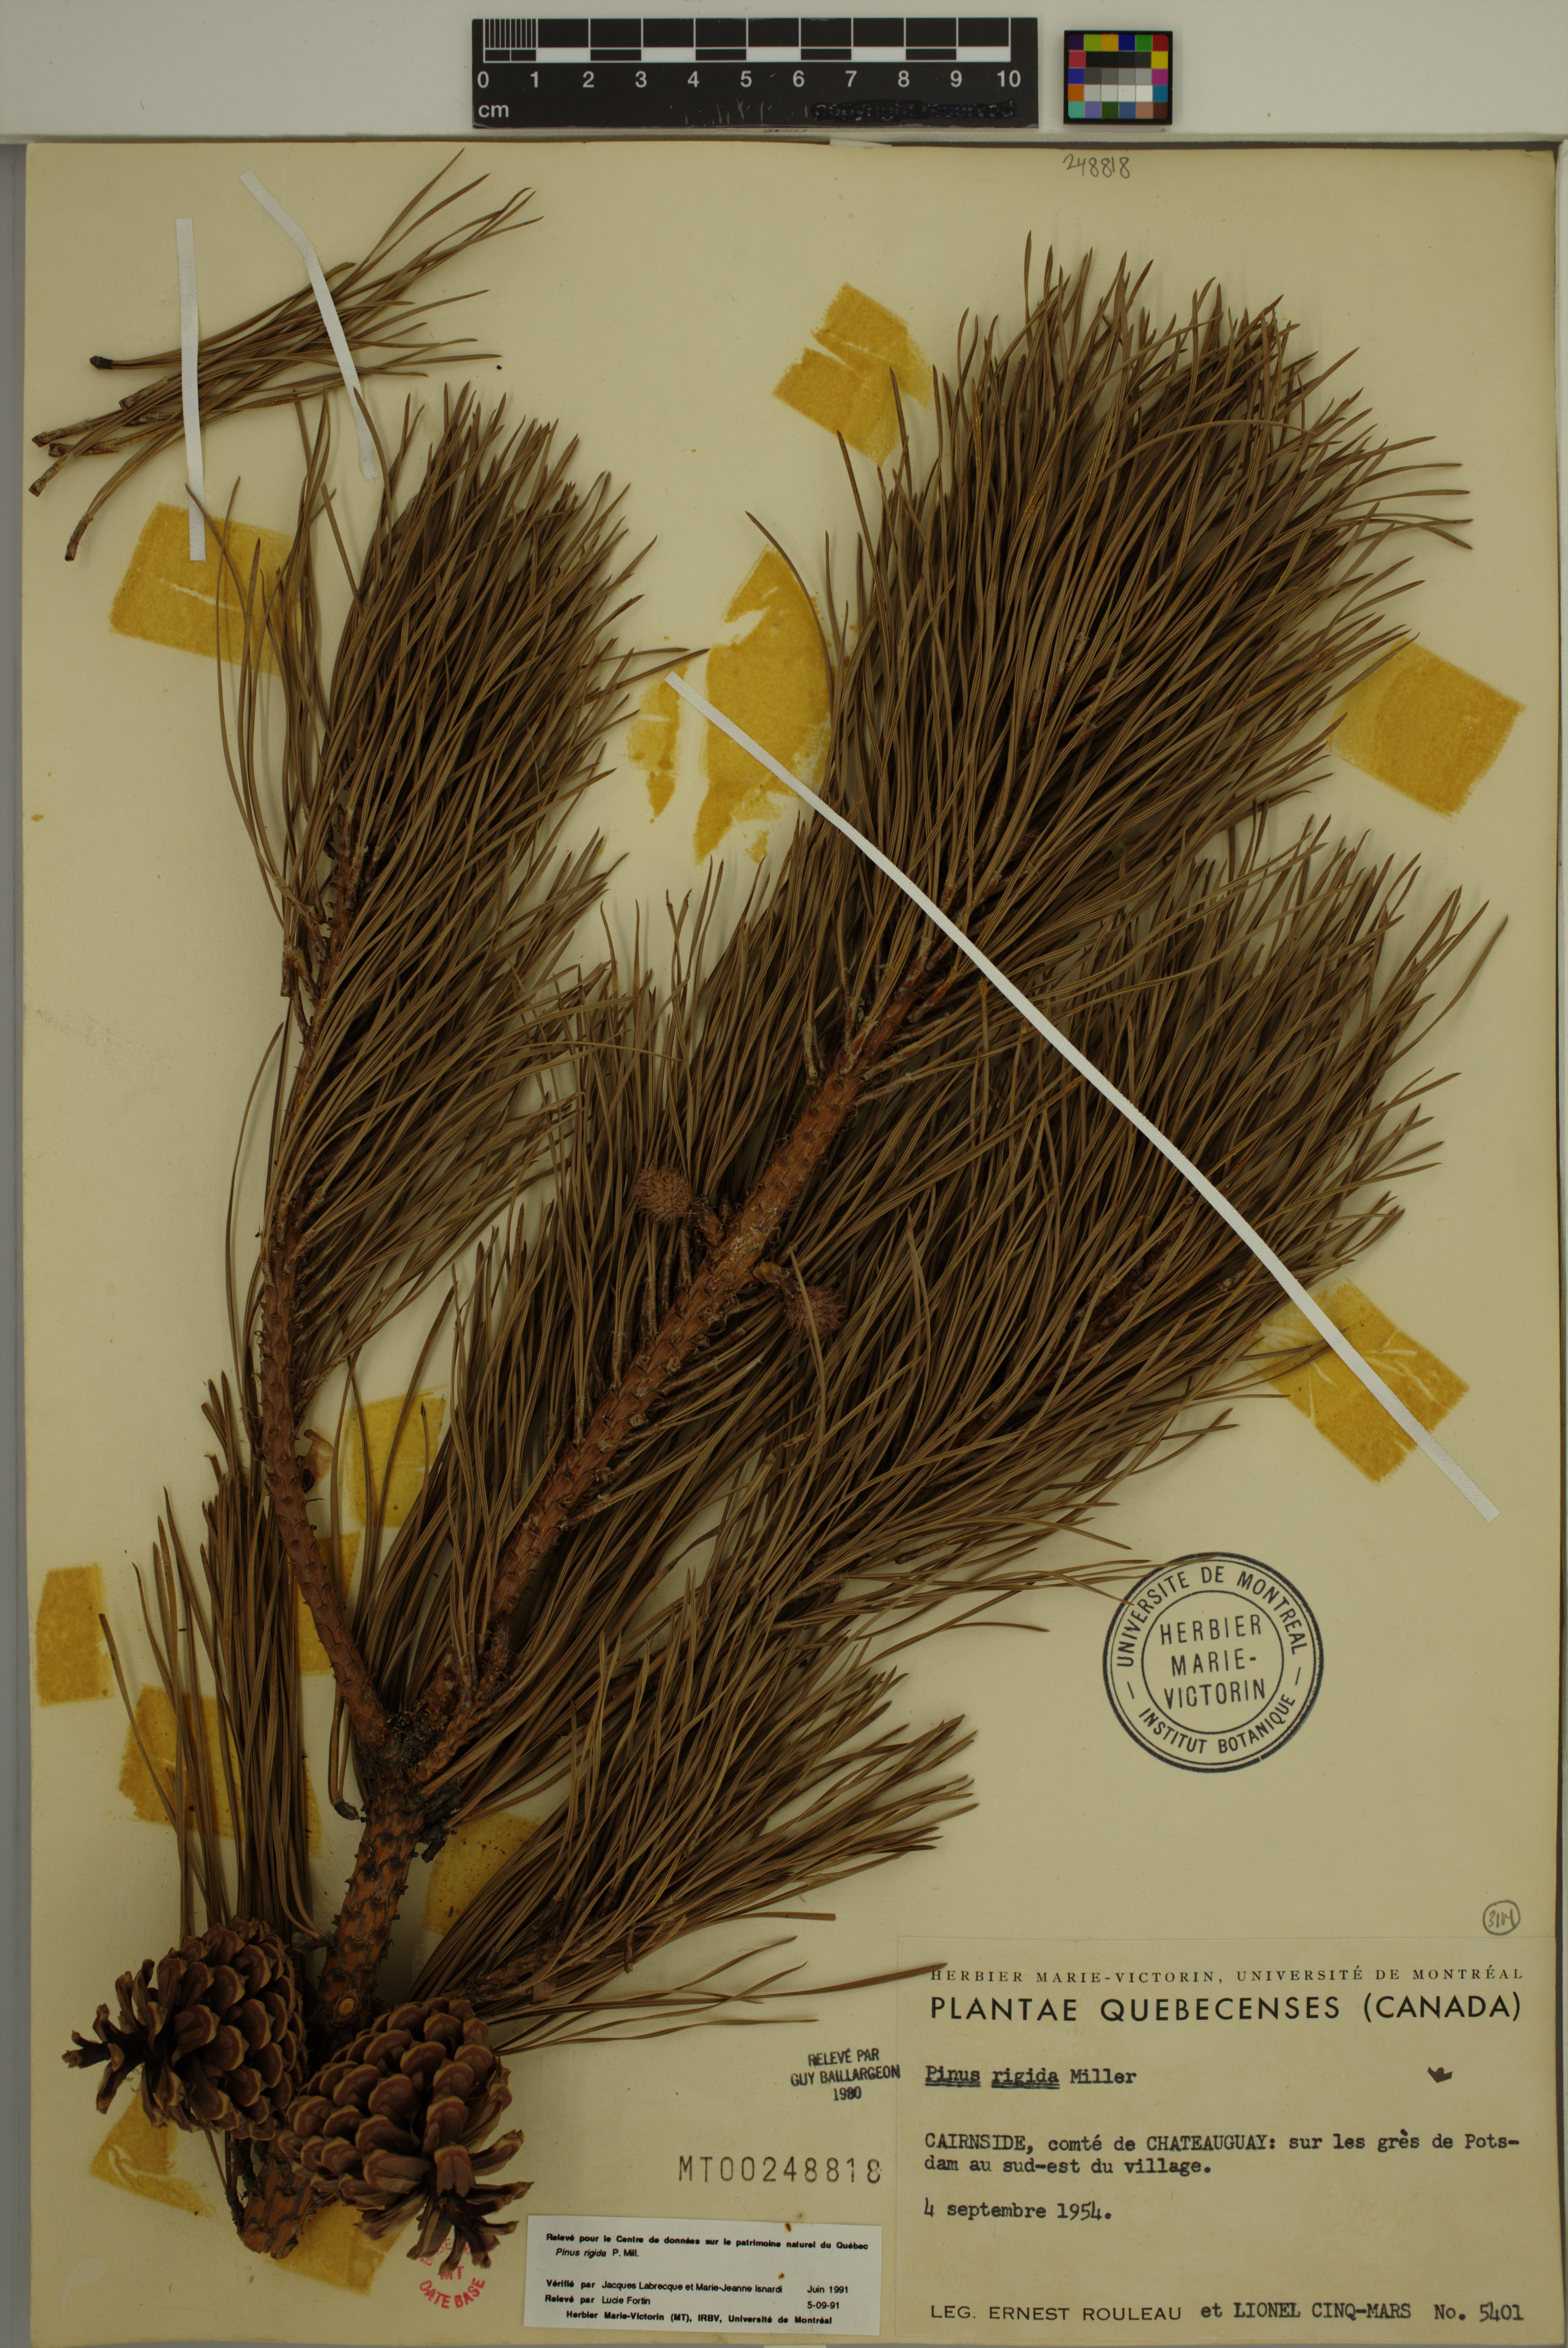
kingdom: Plantae
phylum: Tracheophyta
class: Pinopsida
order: Pinales
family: Pinaceae
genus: Pinus
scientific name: Pinus rigida
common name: Pitch pine
